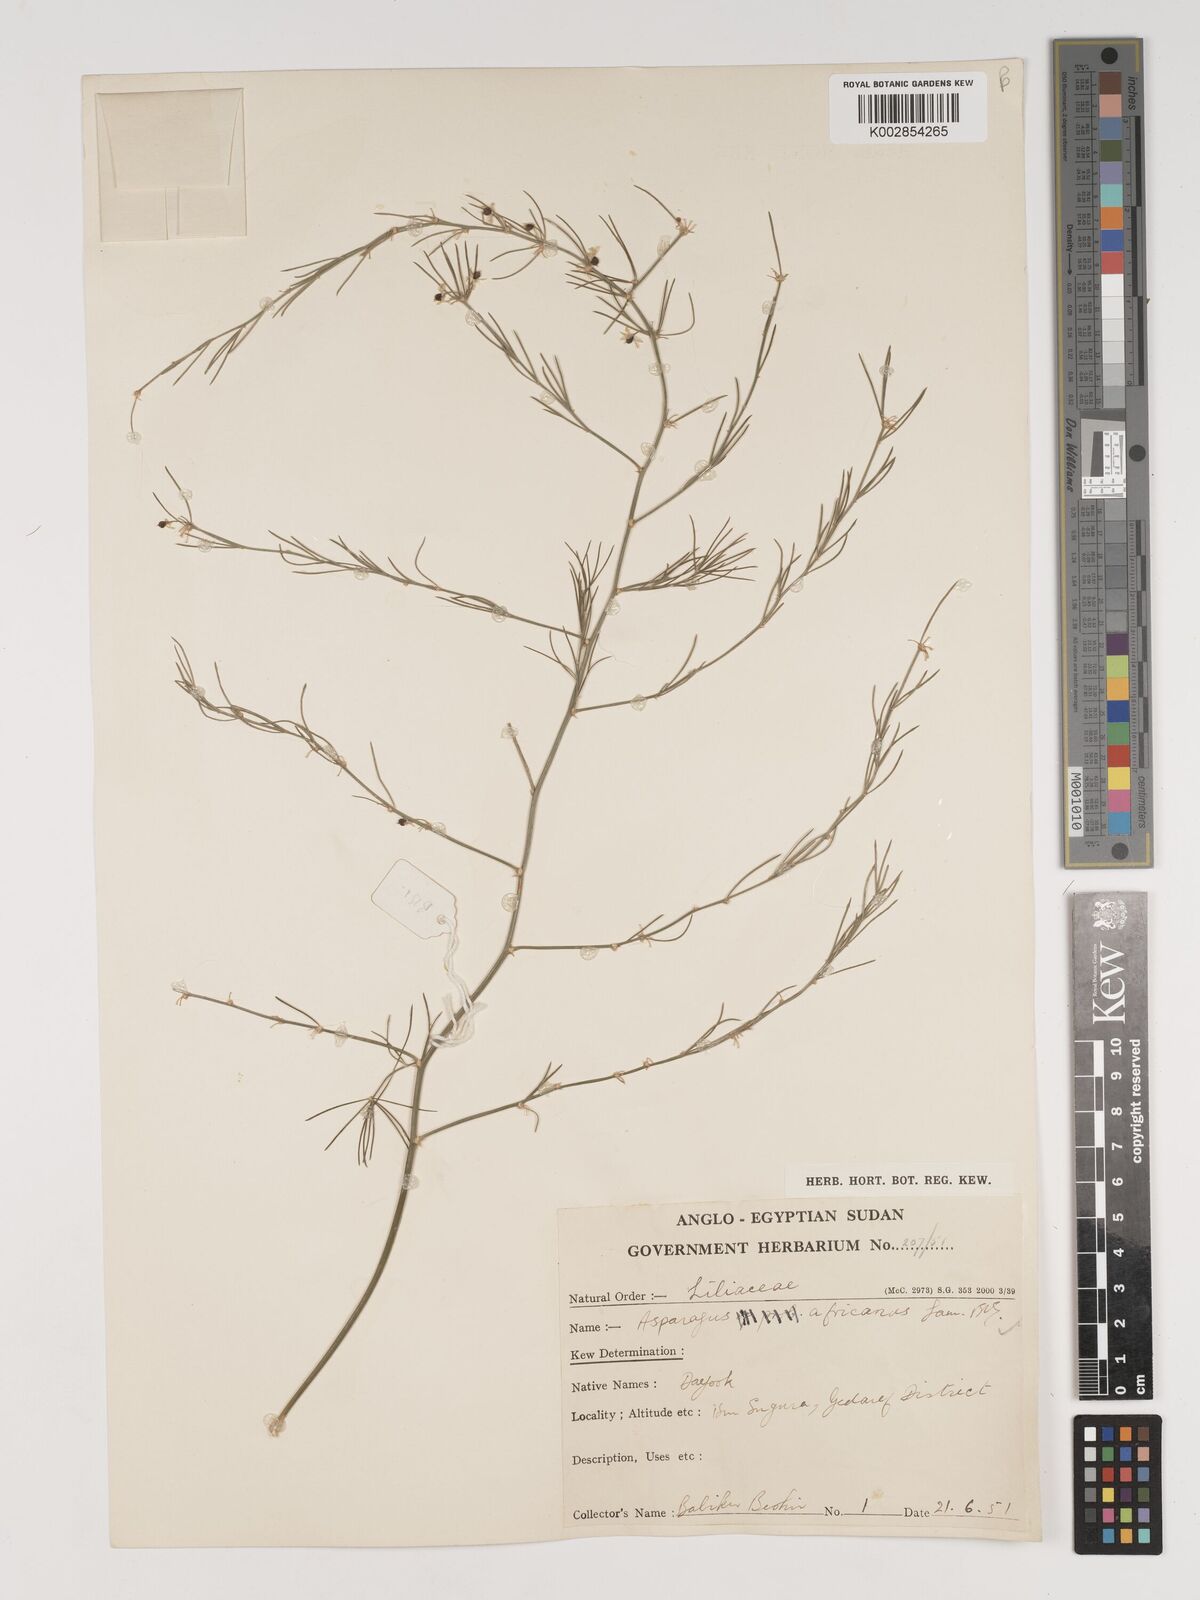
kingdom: Plantae
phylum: Tracheophyta
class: Liliopsida
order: Asparagales
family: Asparagaceae
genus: Asparagus
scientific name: Asparagus africanus
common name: Asparagus-fern
